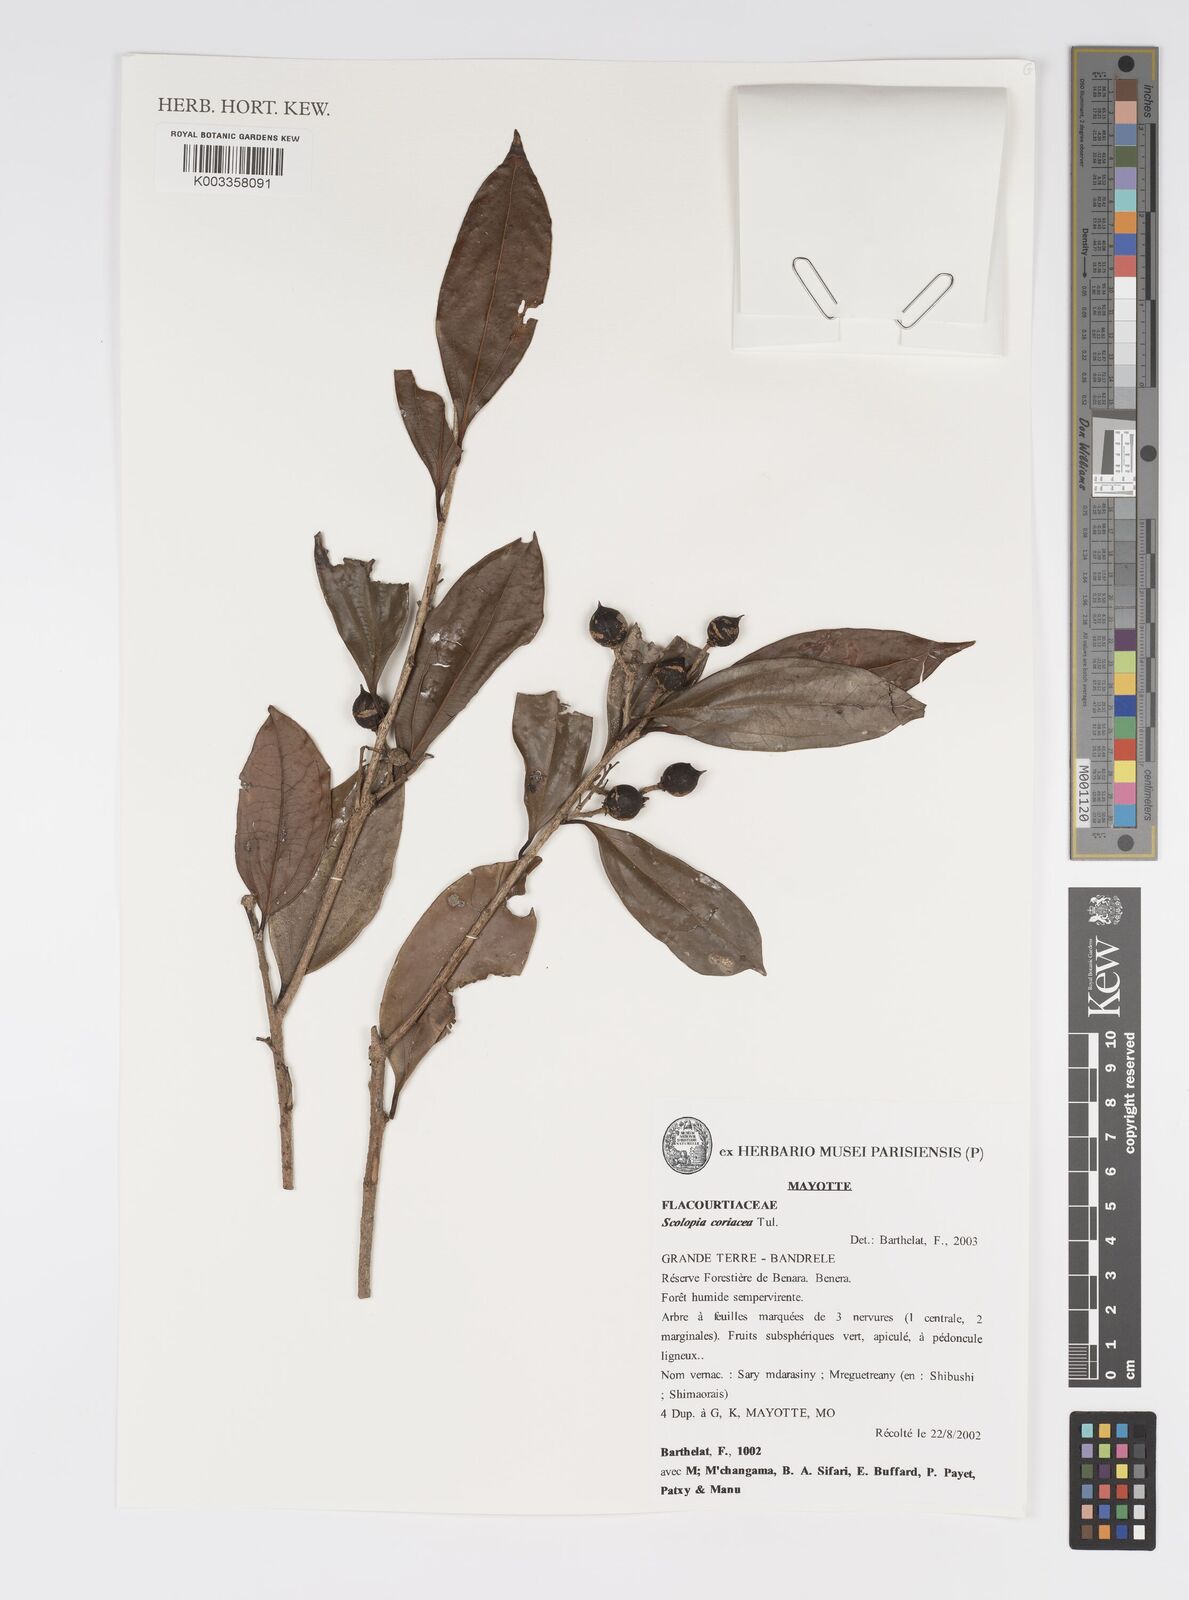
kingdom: Plantae
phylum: Tracheophyta
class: Magnoliopsida
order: Malpighiales
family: Salicaceae
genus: Scolopia
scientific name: Scolopia coriacea
